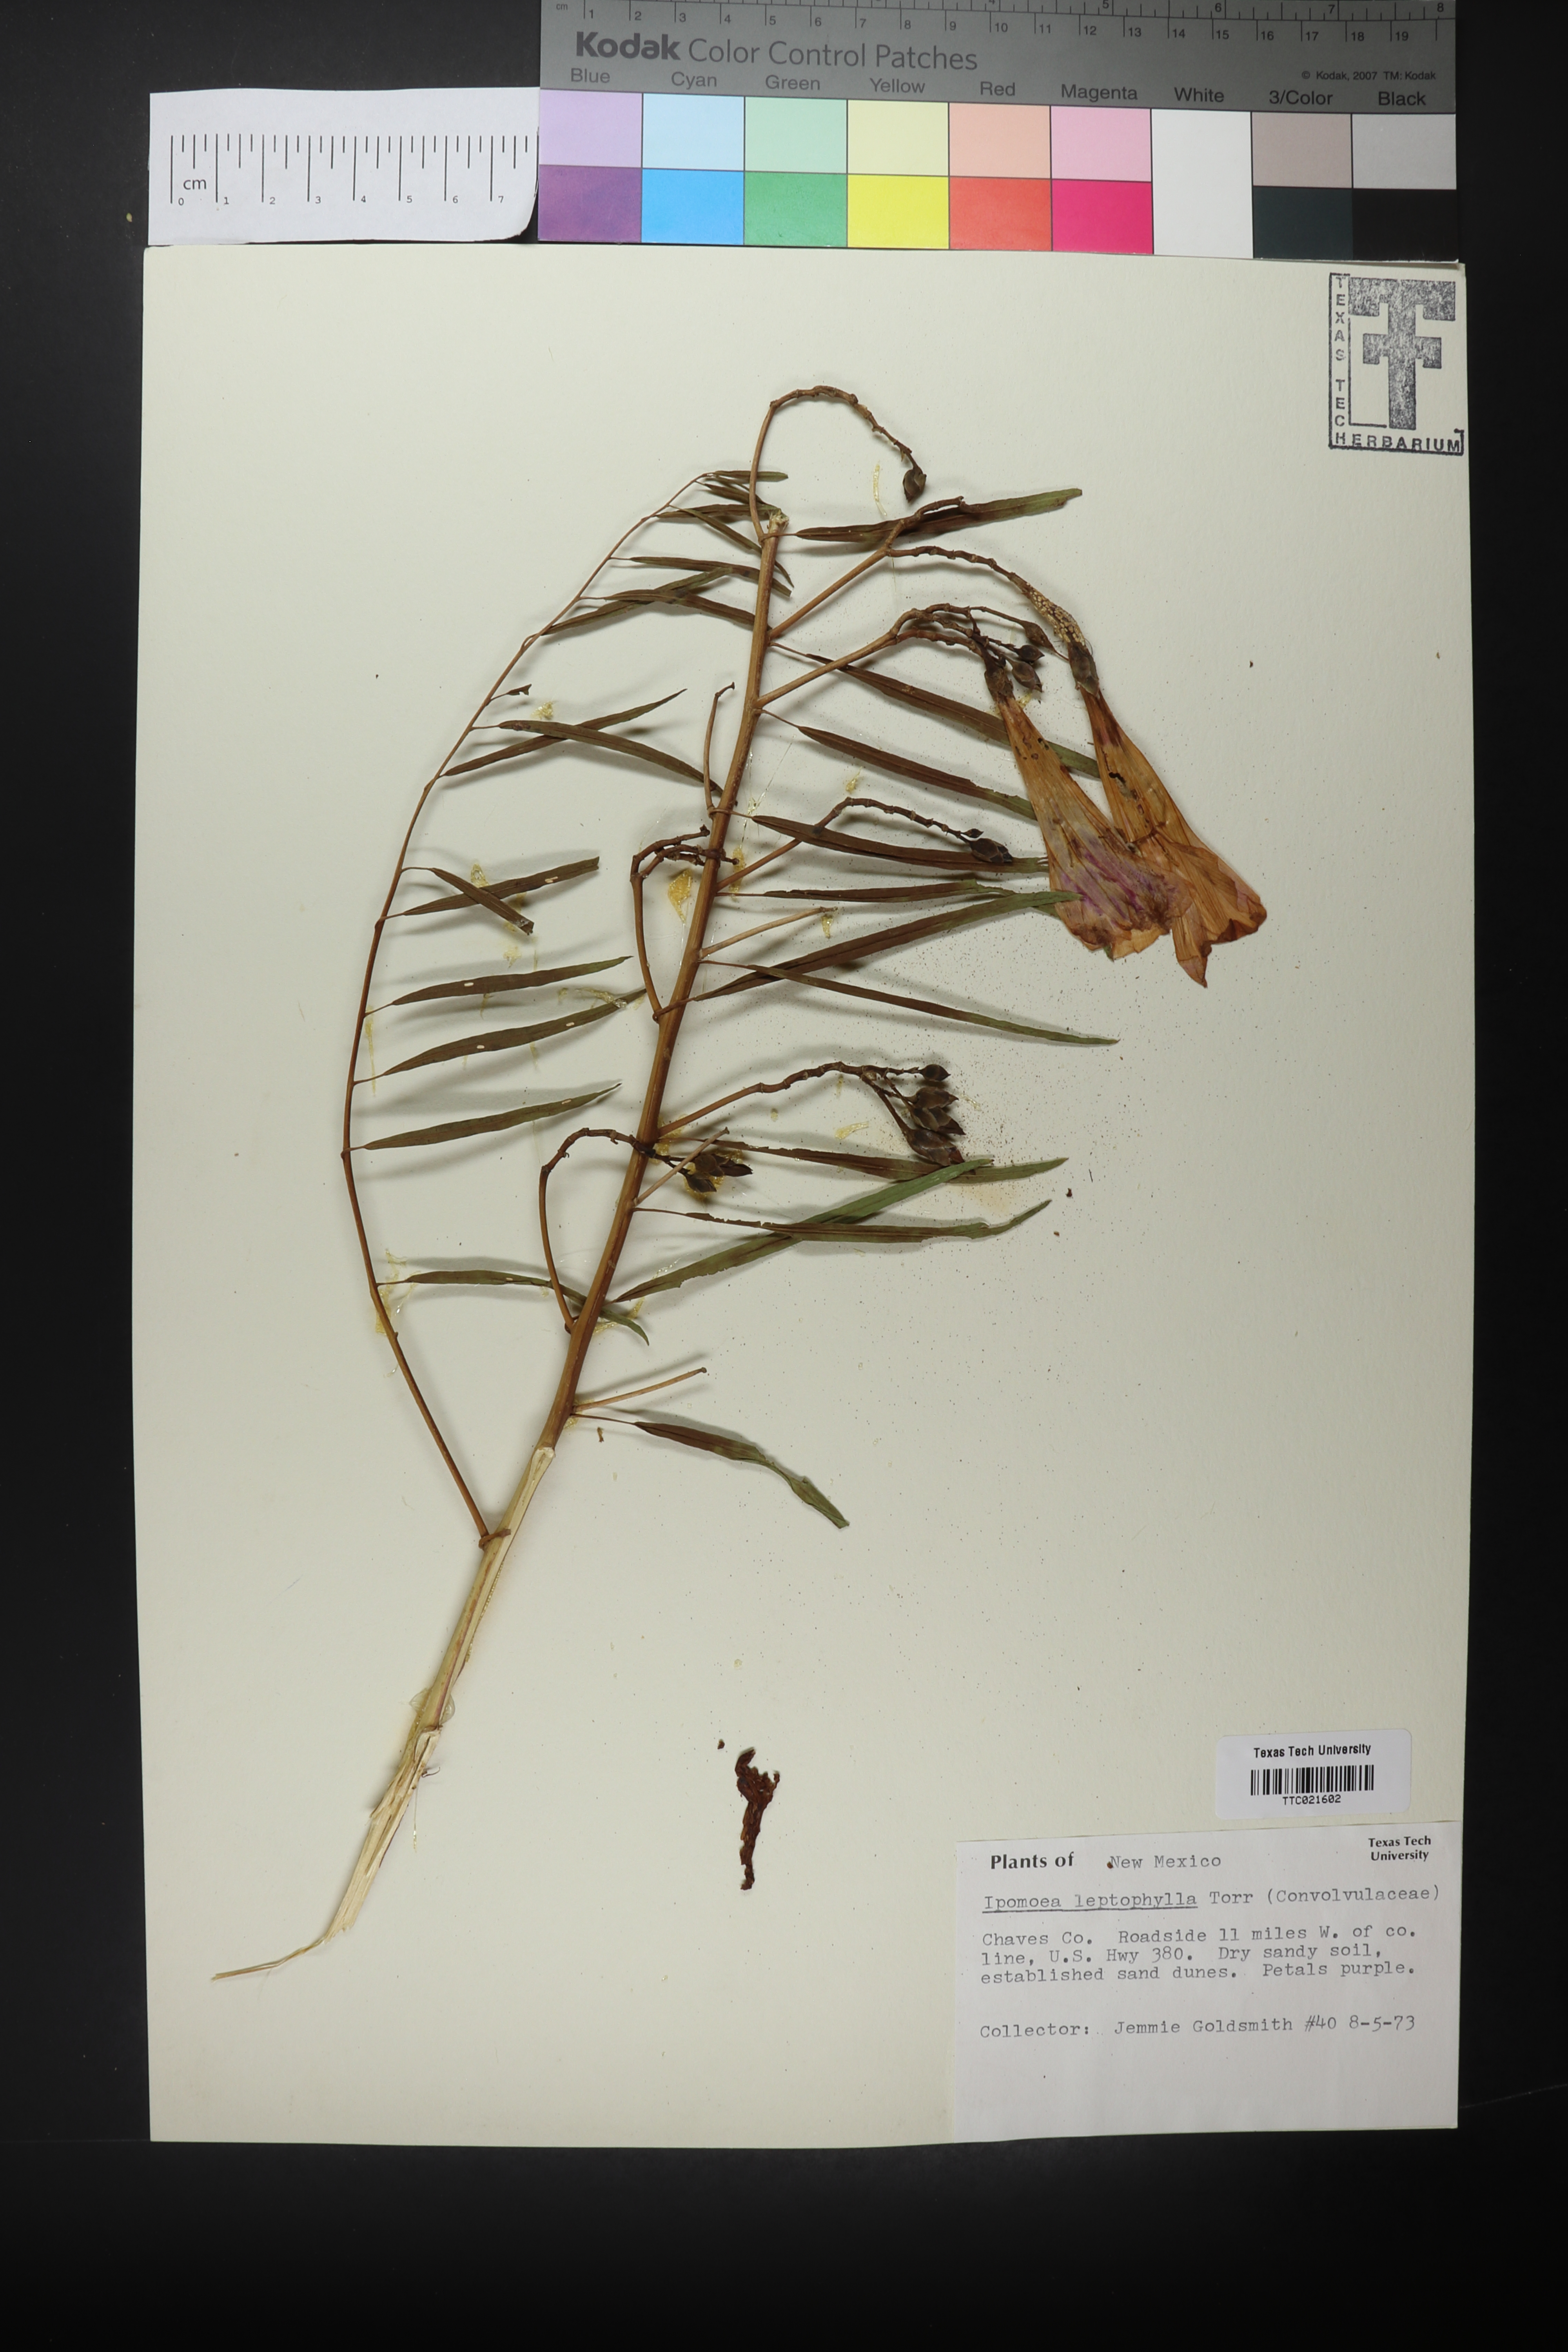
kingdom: Plantae
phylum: Tracheophyta
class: Magnoliopsida
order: Solanales
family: Convolvulaceae
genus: Ipomoea
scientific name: Ipomoea leptophylla
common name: Bush moonflower
